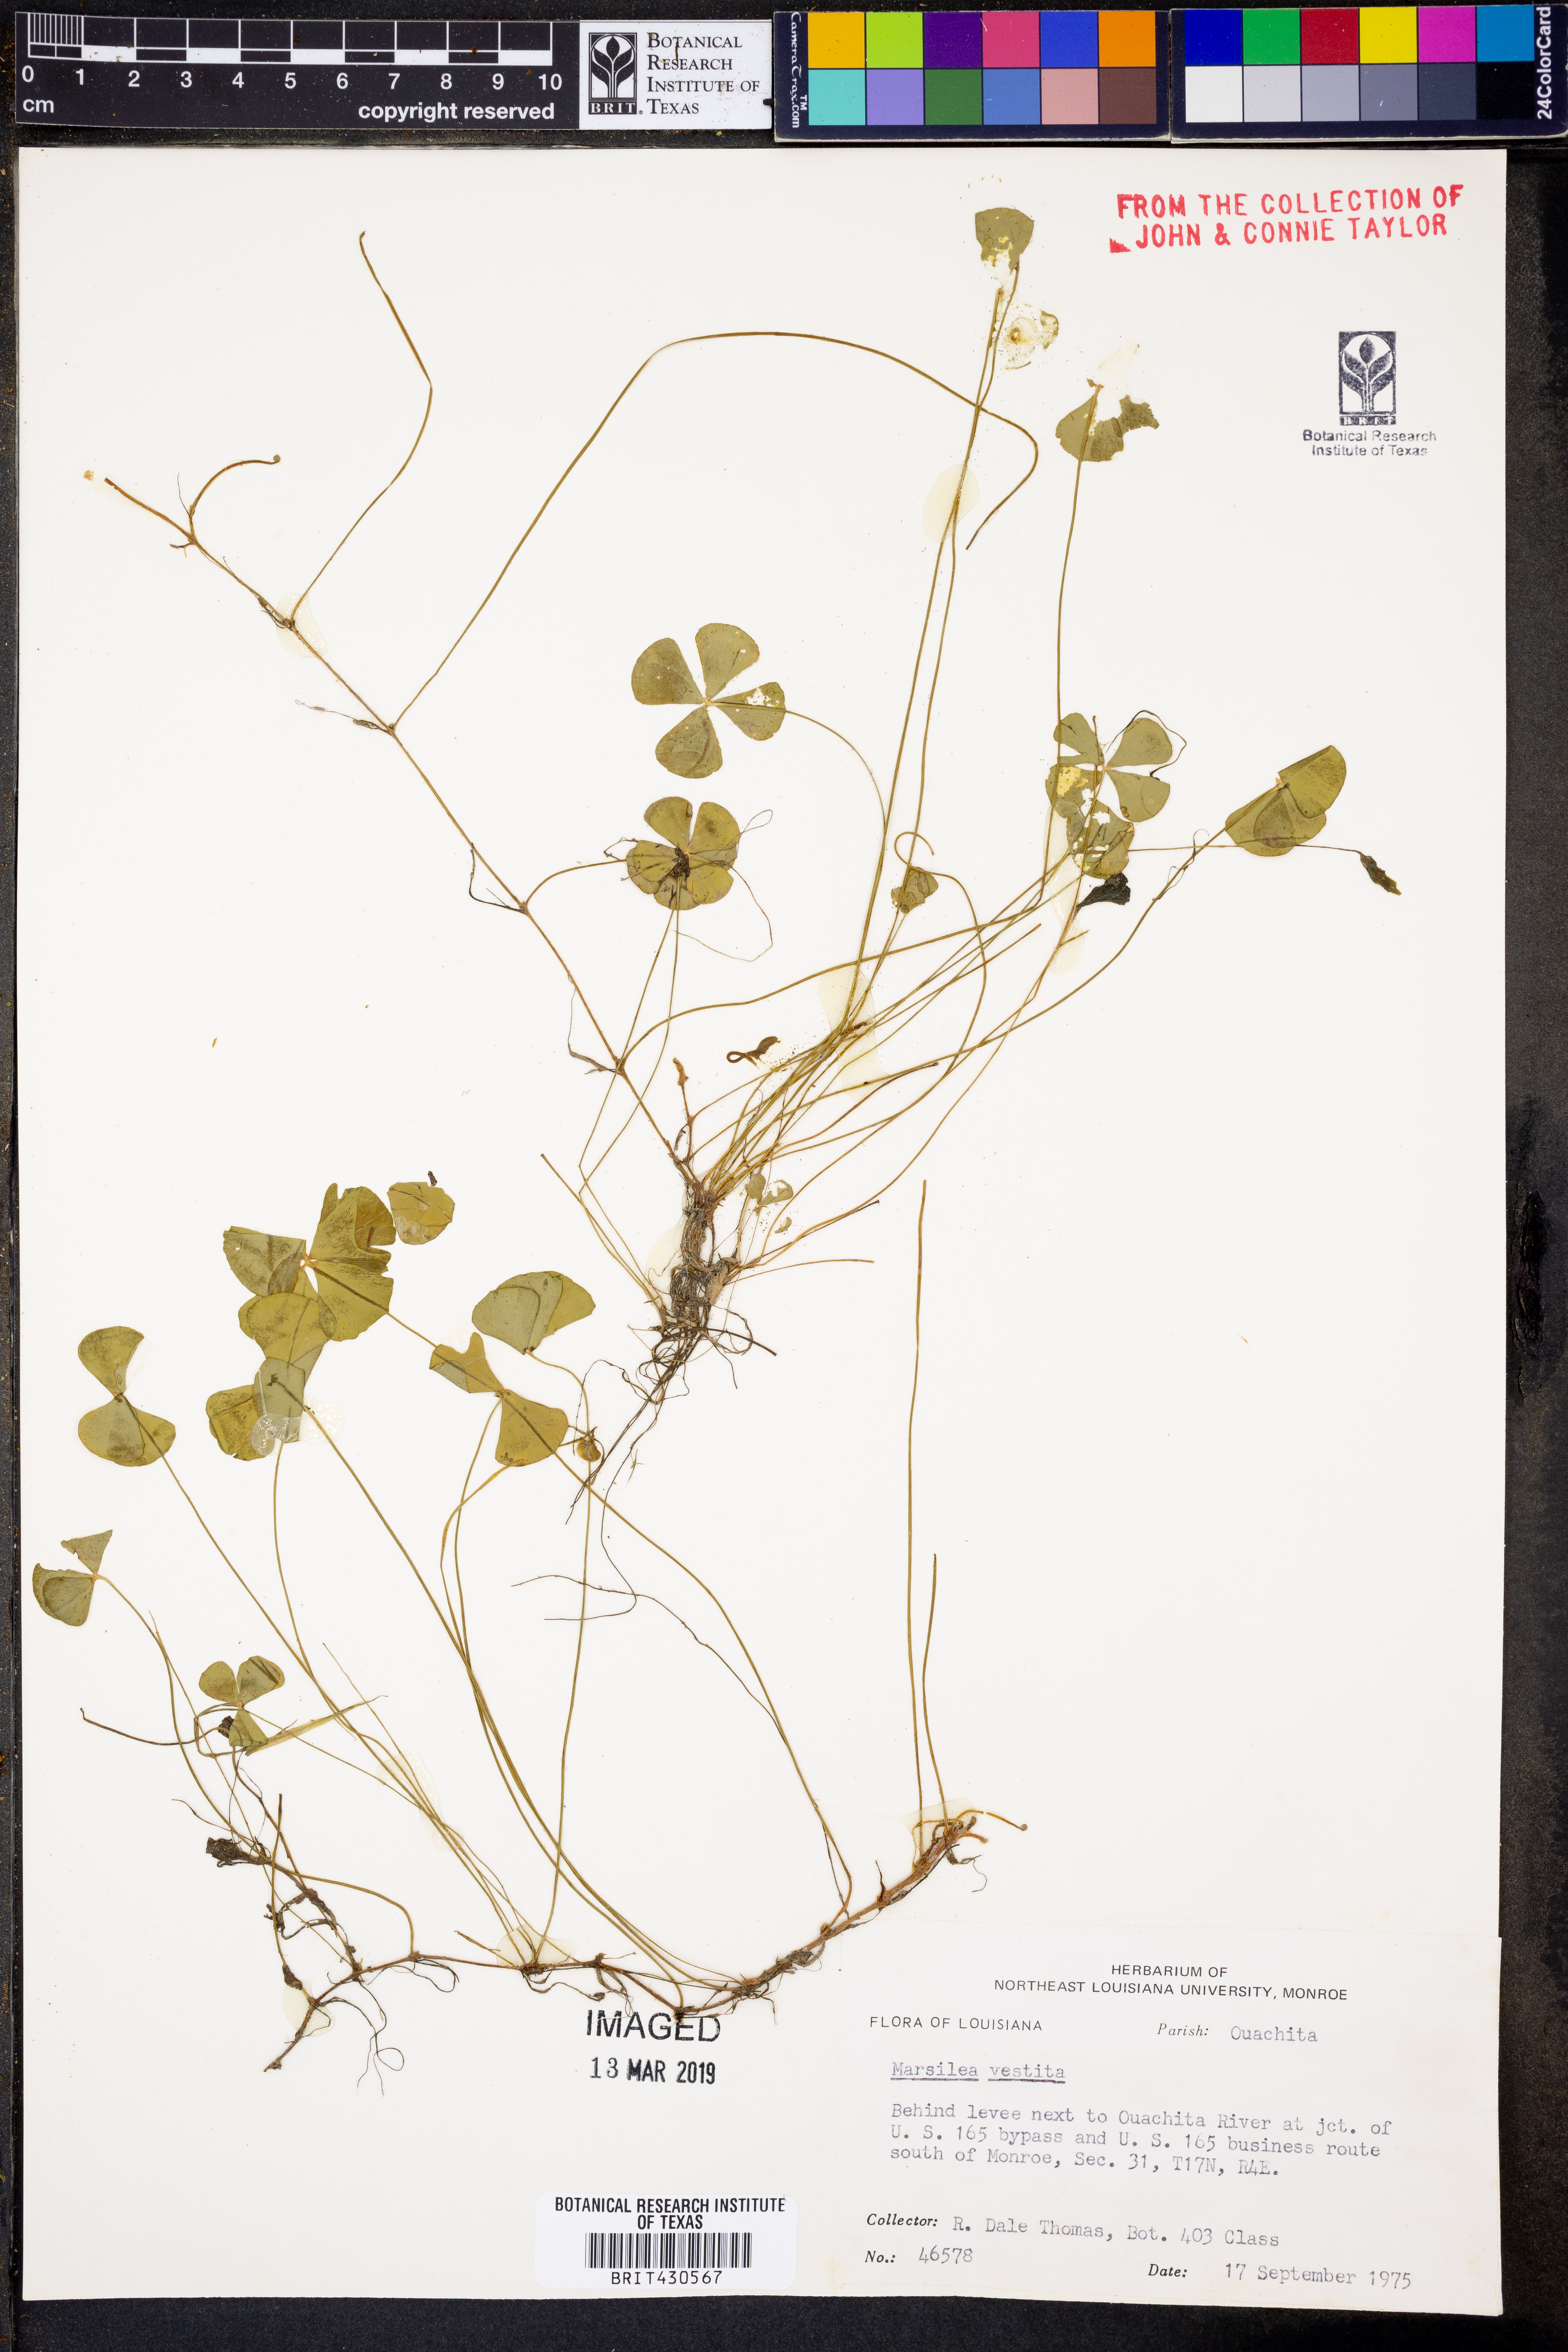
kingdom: Plantae
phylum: Tracheophyta
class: Polypodiopsida
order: Salviniales
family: Marsileaceae
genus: Marsilea
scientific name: Marsilea vestita
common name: Hooked-pepperwort
